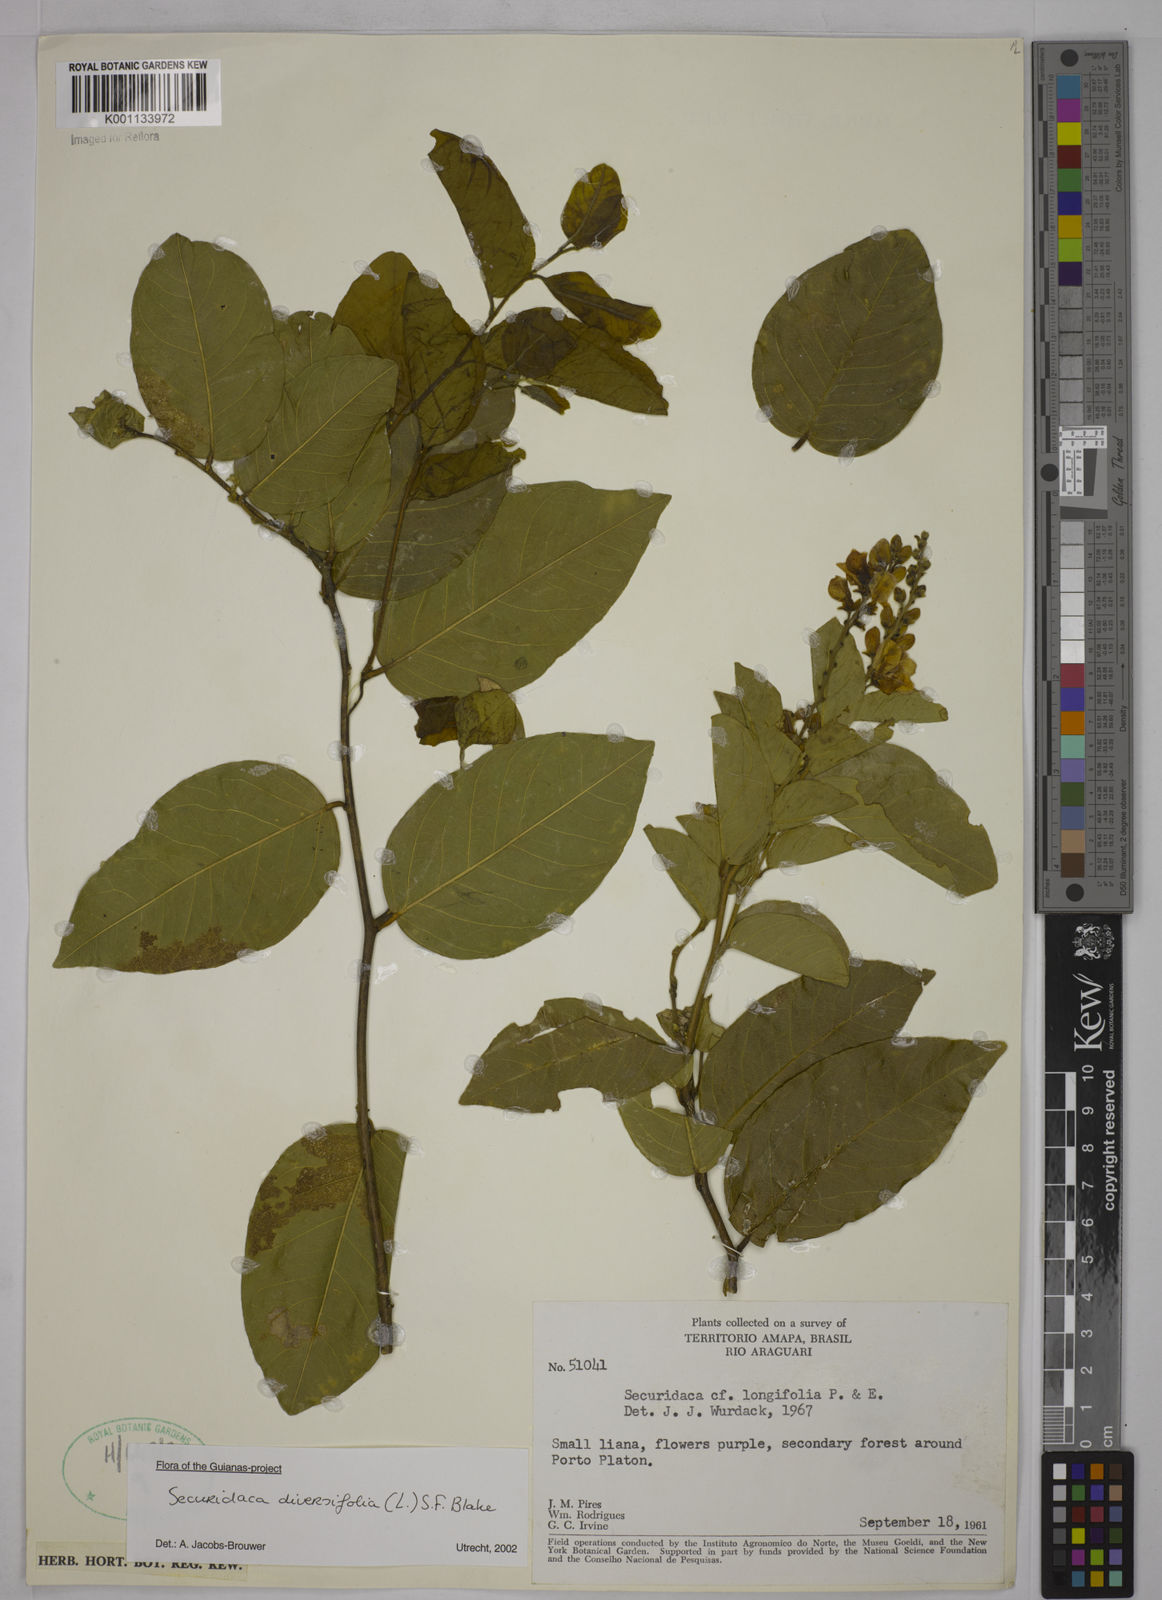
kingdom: Plantae
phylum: Tracheophyta
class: Magnoliopsida
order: Fabales
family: Polygalaceae
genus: Securidaca
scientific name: Securidaca diversifolia
